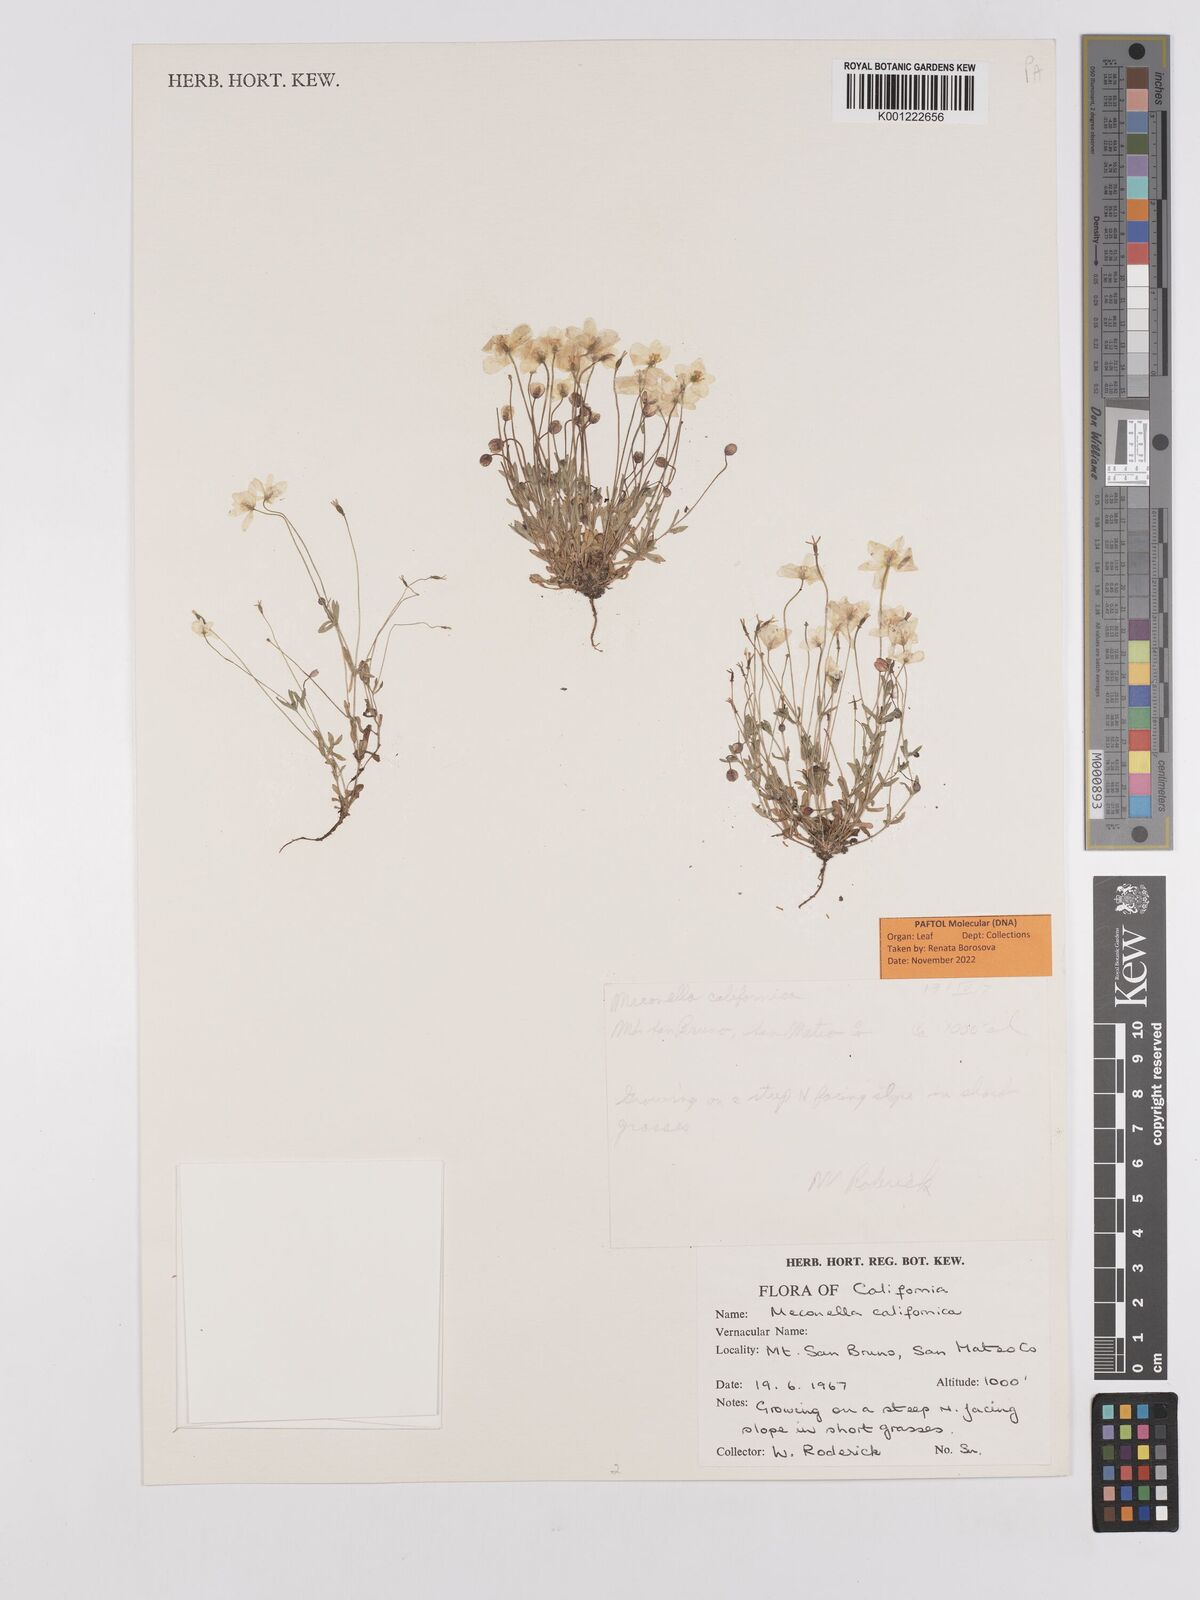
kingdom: Plantae
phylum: Tracheophyta
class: Magnoliopsida
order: Ranunculales
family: Papaveraceae
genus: Meconella
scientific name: Meconella californica
